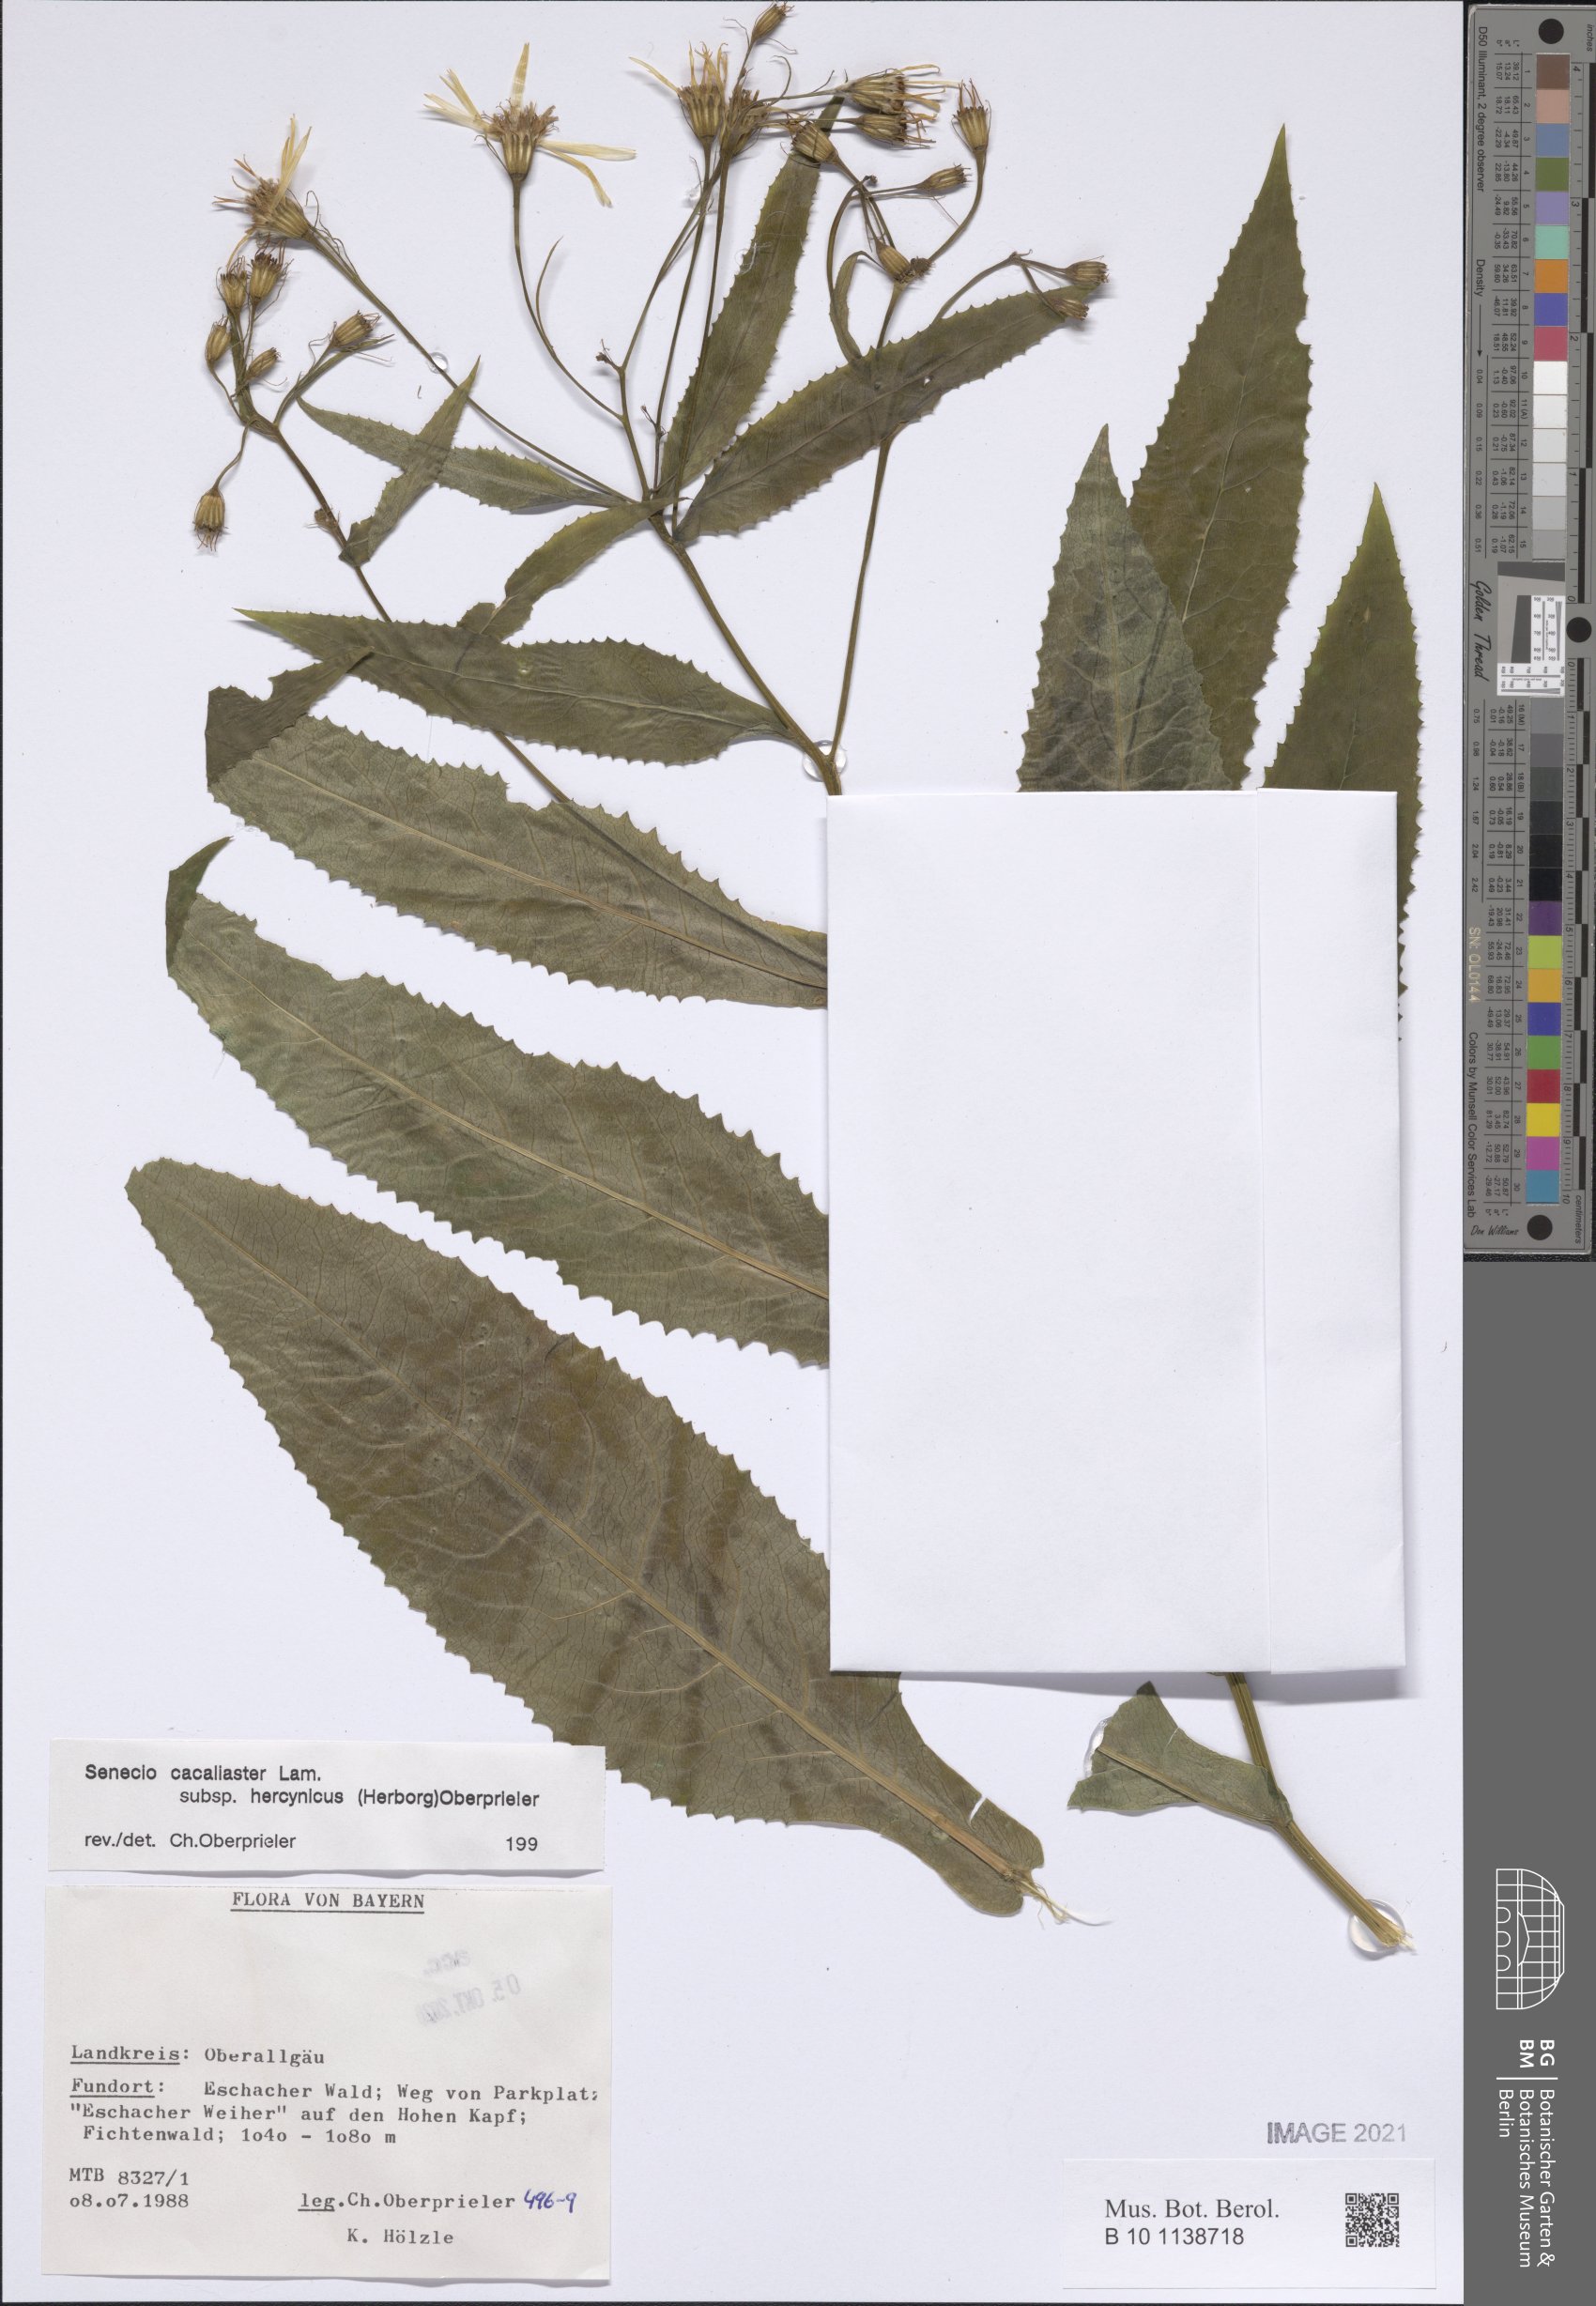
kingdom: Plantae
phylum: Tracheophyta
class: Magnoliopsida
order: Asterales
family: Asteraceae
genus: Senecio
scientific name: Senecio hercynicus
